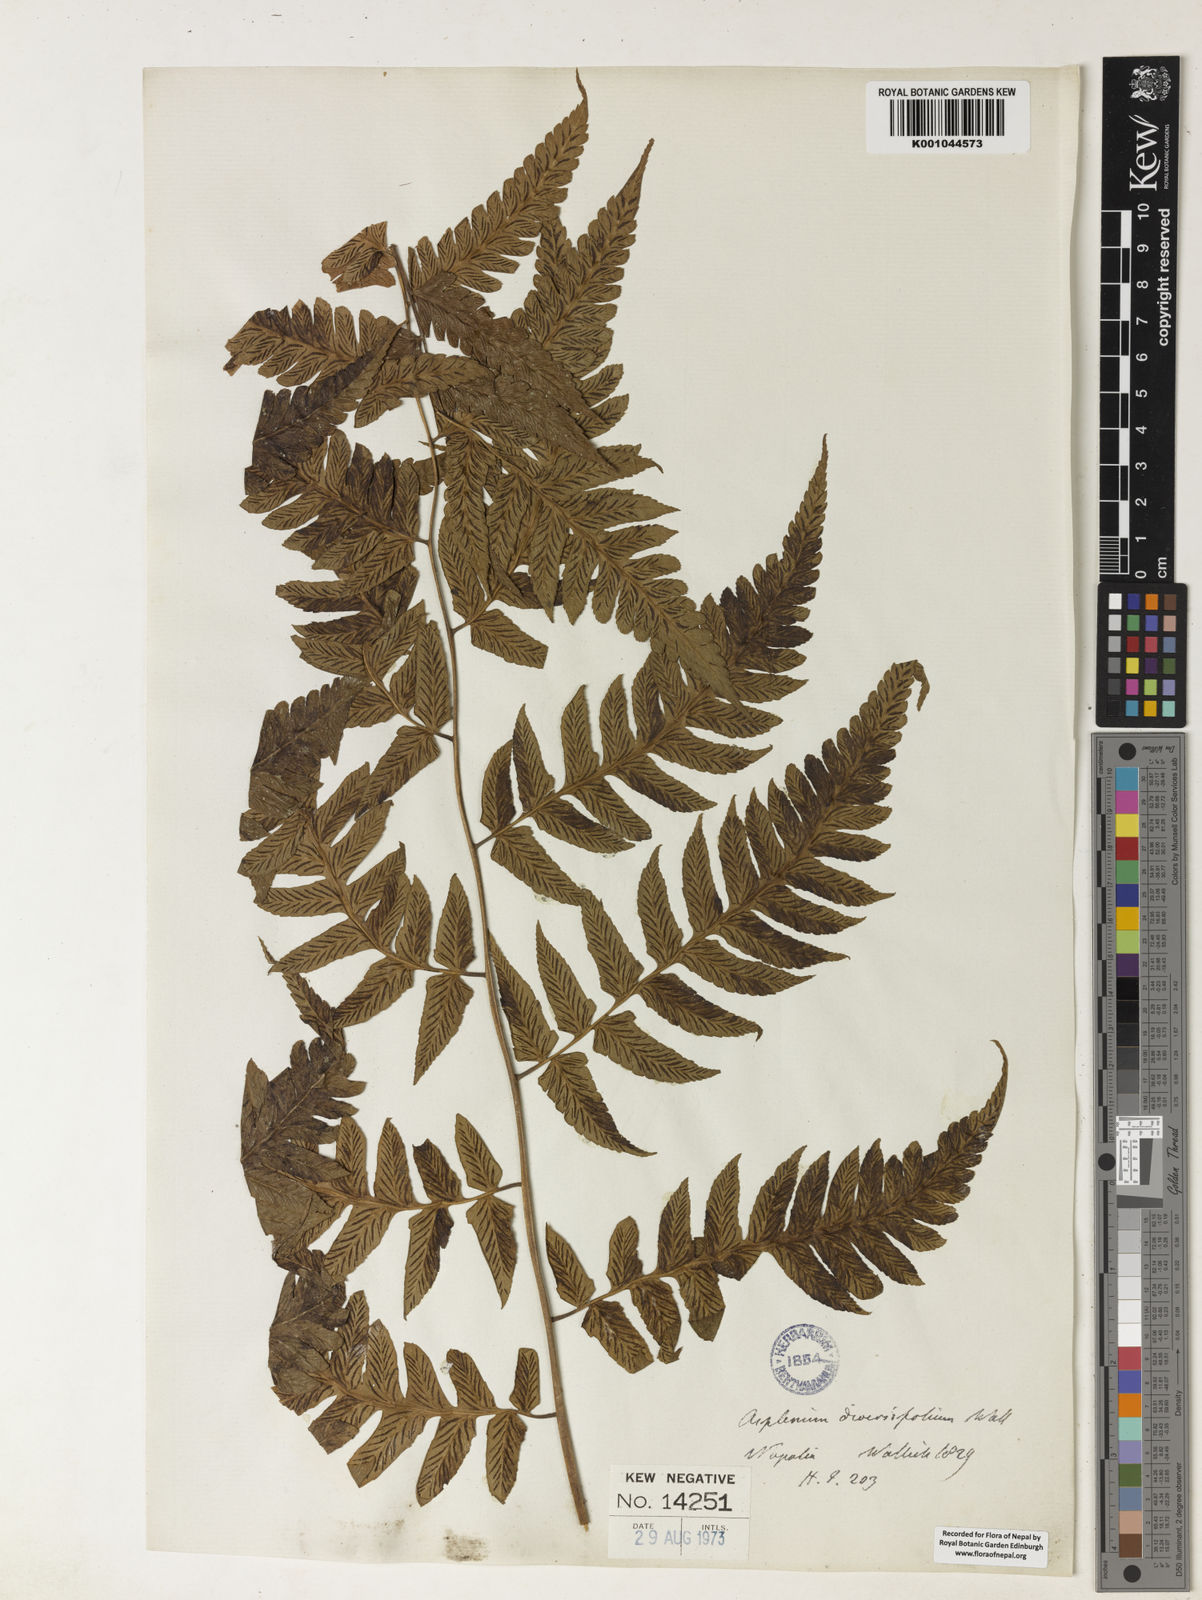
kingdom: Plantae
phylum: Tracheophyta
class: Polypodiopsida
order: Polypodiales
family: Athyriaceae
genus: Diplazium
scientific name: Diplazium dilatatum
